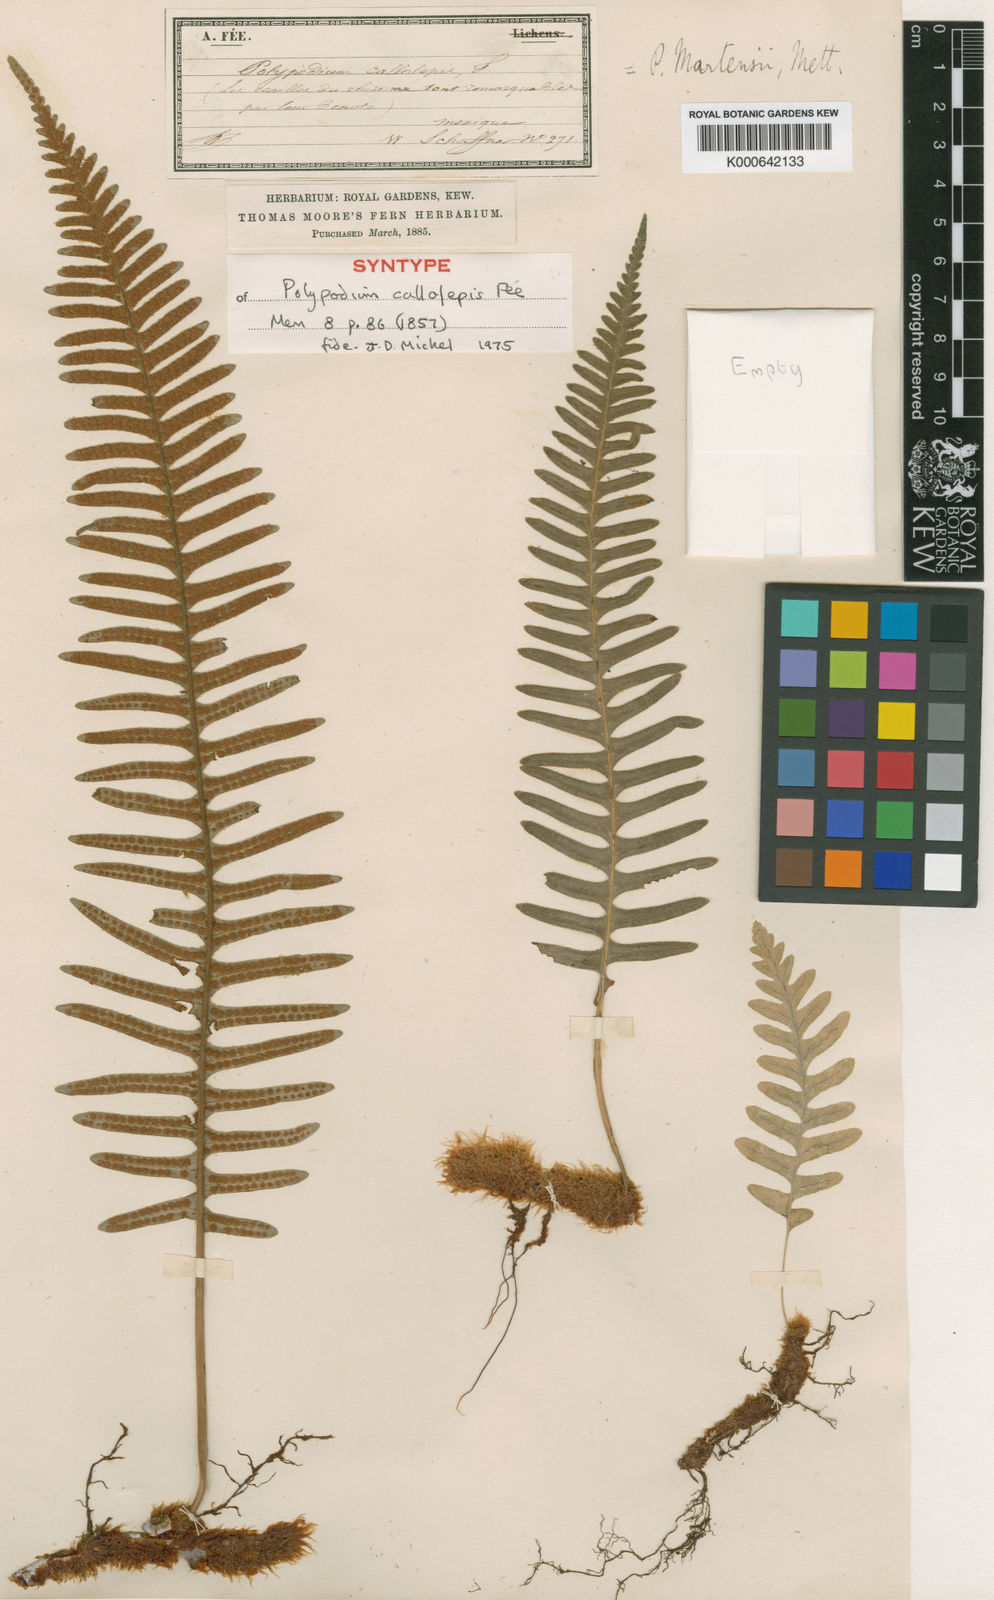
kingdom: Plantae
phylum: Tracheophyta
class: Polypodiopsida
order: Polypodiales
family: Polypodiaceae
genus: Polypodium
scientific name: Polypodium martensii
